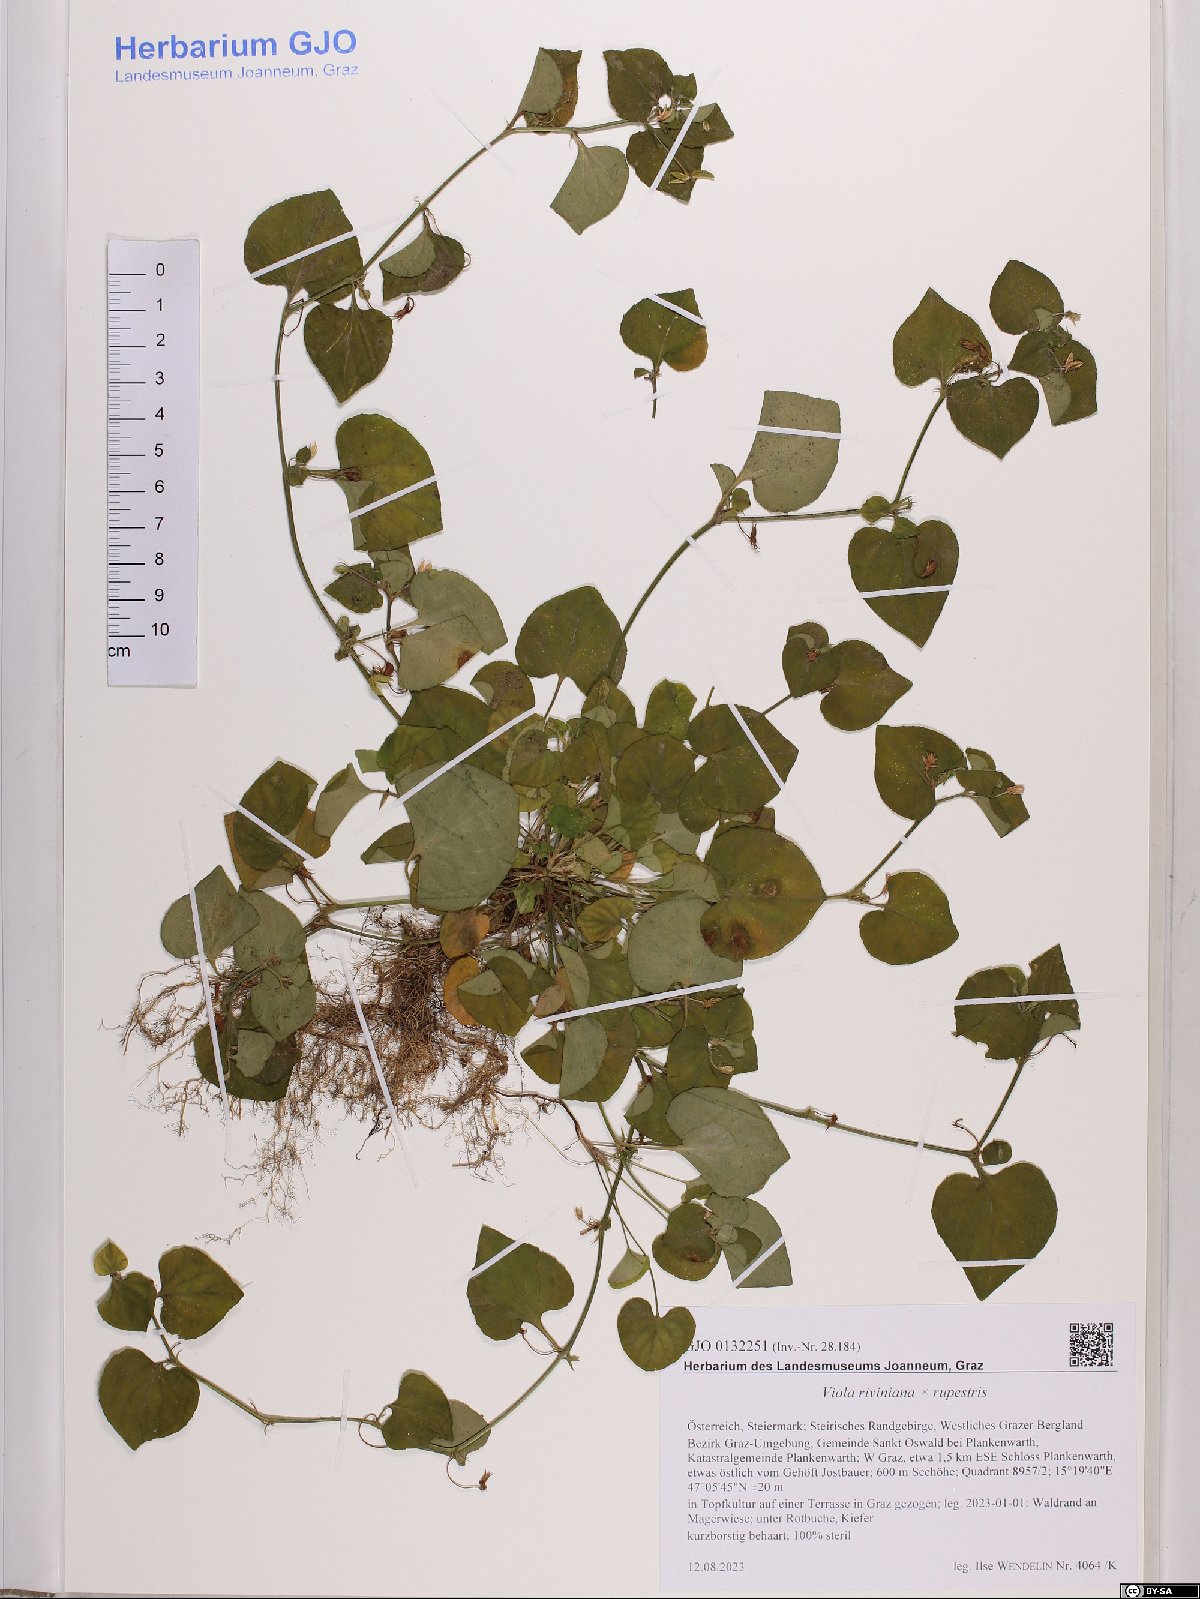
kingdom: Plantae
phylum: Tracheophyta
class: Magnoliopsida
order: Malpighiales
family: Violaceae
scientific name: Violaceae
